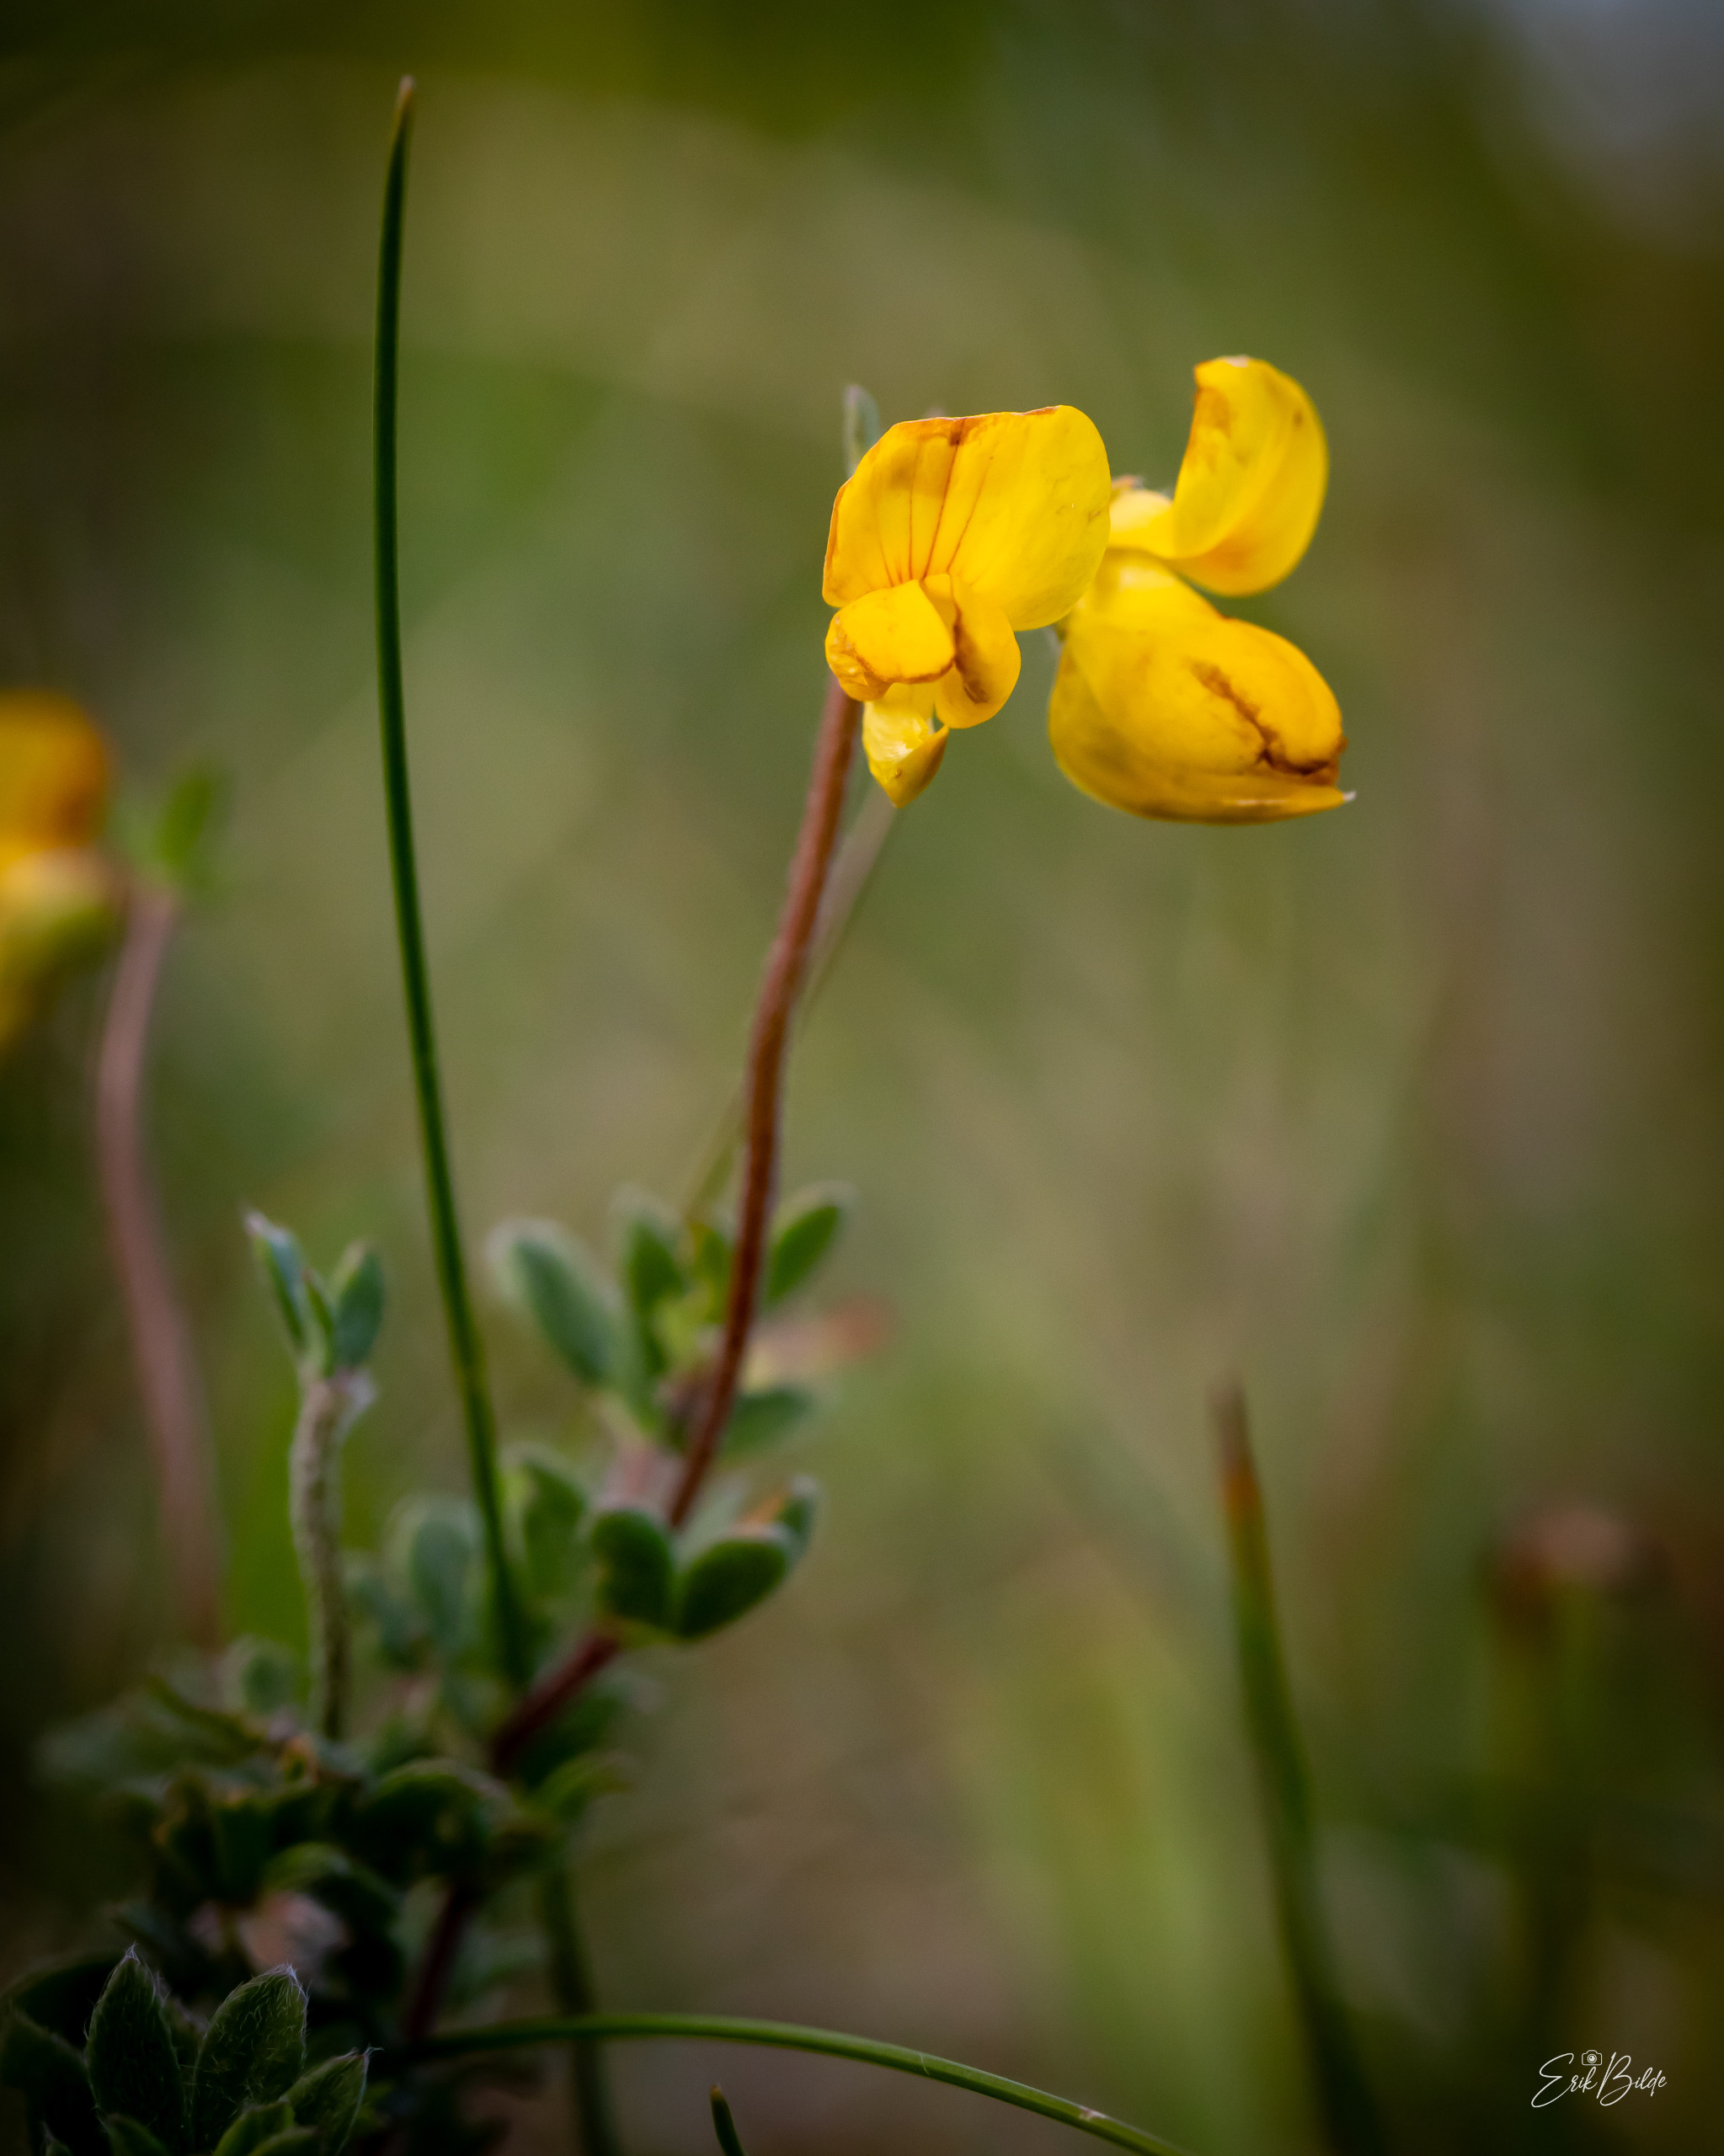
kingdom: Plantae
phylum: Tracheophyta
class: Magnoliopsida
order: Fabales
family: Fabaceae
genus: Lotus
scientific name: Lotus corniculatus
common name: Almindelig kællingetand
